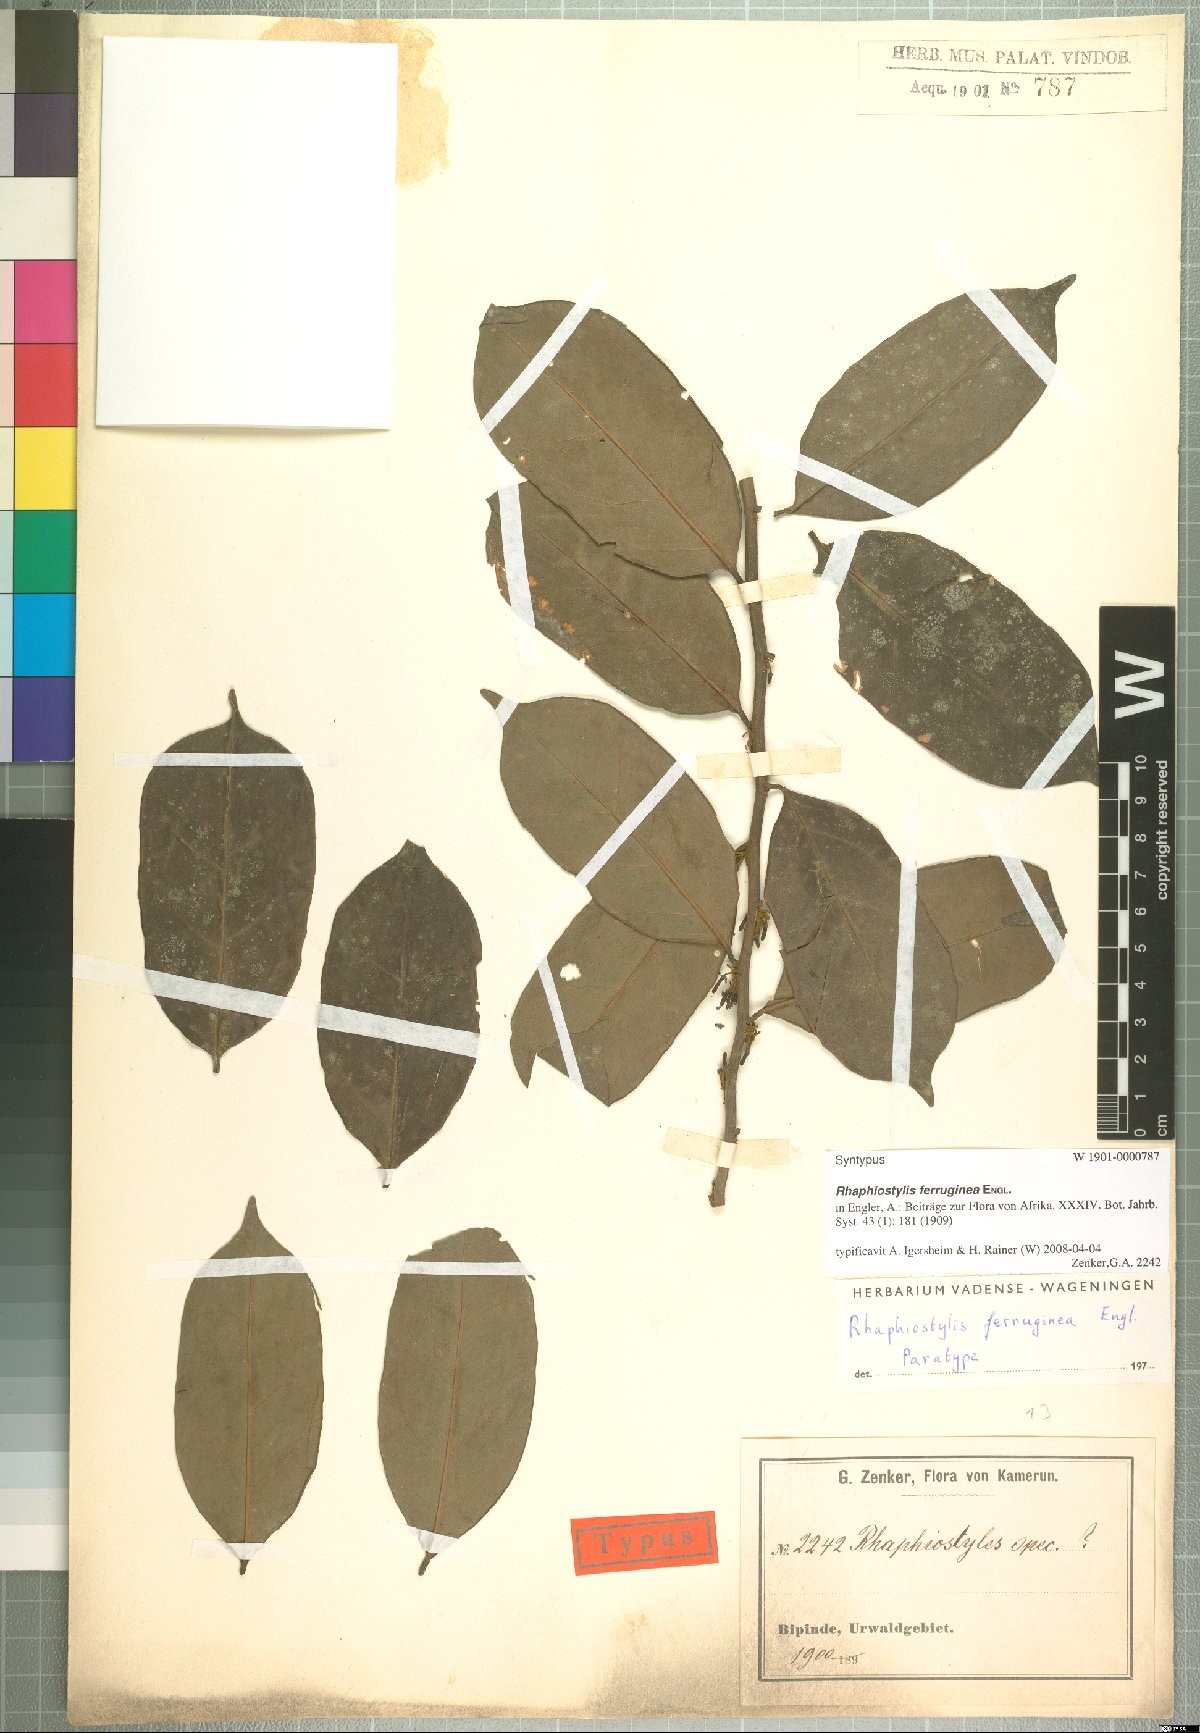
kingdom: Plantae
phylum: Tracheophyta
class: Magnoliopsida
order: Metteniusales
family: Metteniusaceae
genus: Rhaphiostylis
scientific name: Rhaphiostylis ferruginea
